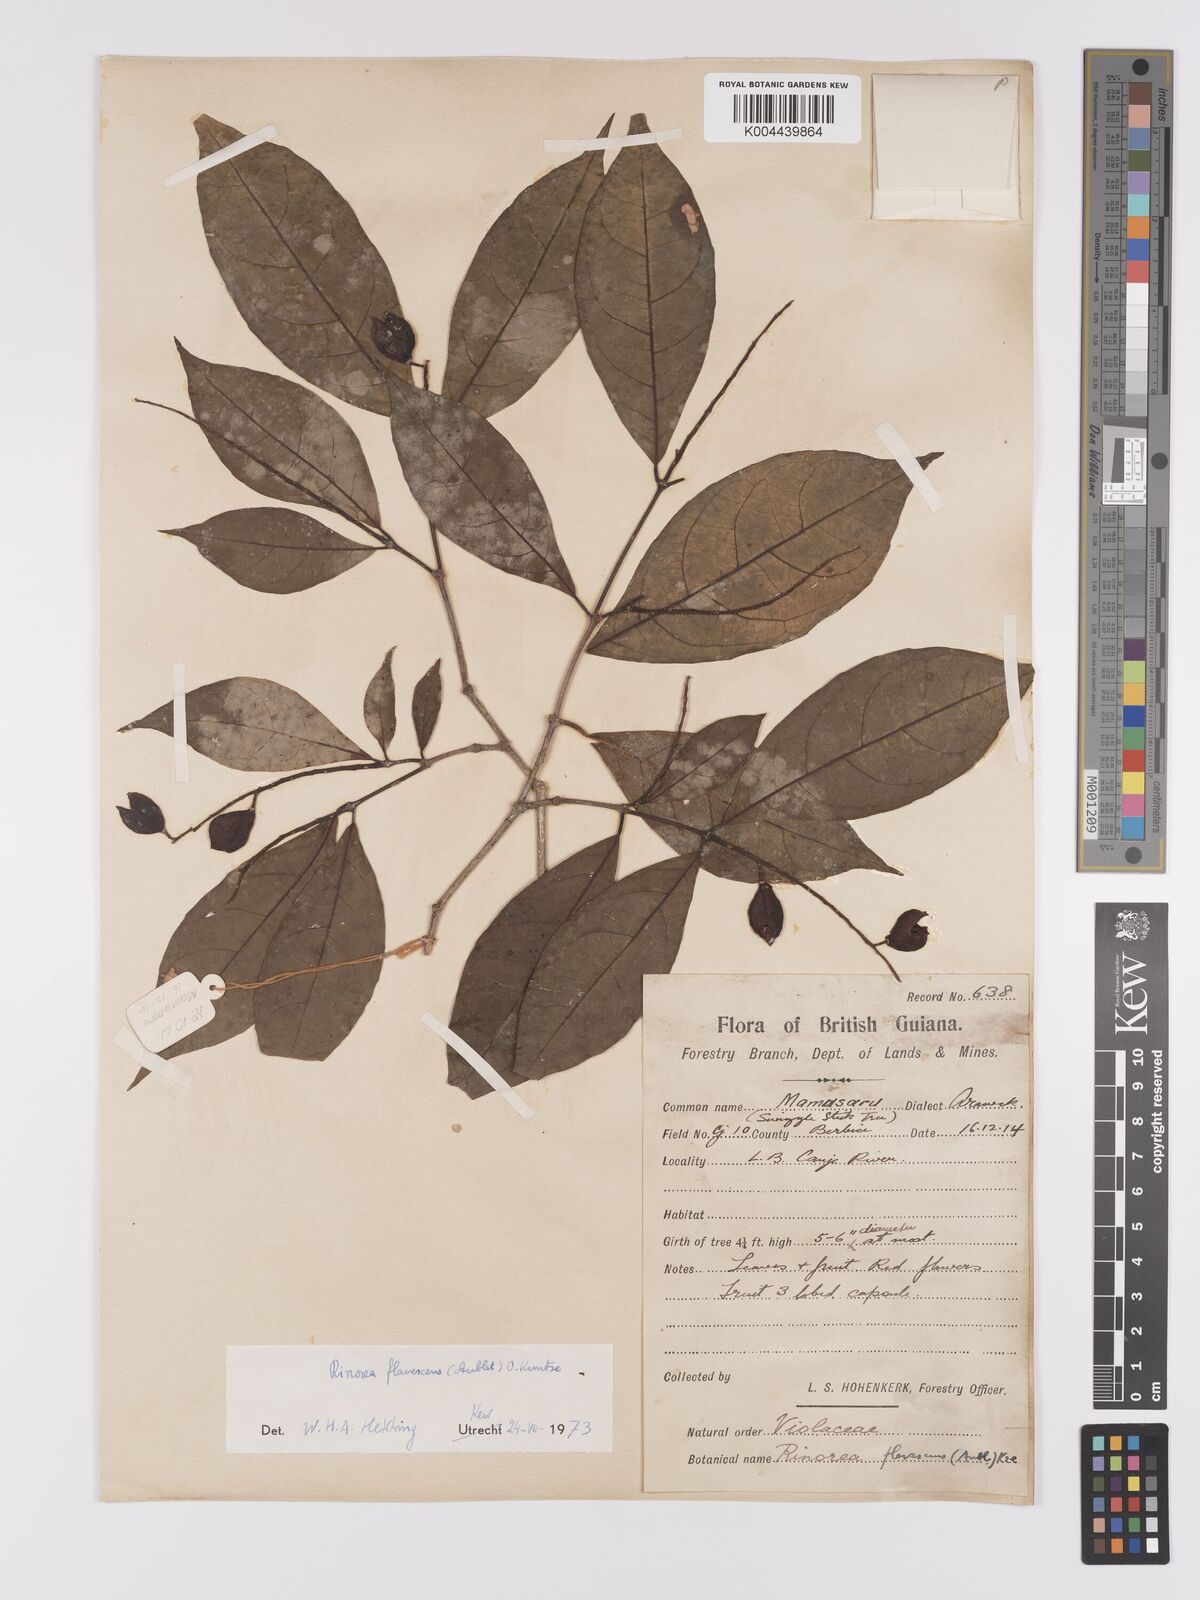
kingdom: Plantae
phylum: Tracheophyta
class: Magnoliopsida
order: Malpighiales
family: Violaceae
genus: Rinorea
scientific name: Rinorea flavescens
